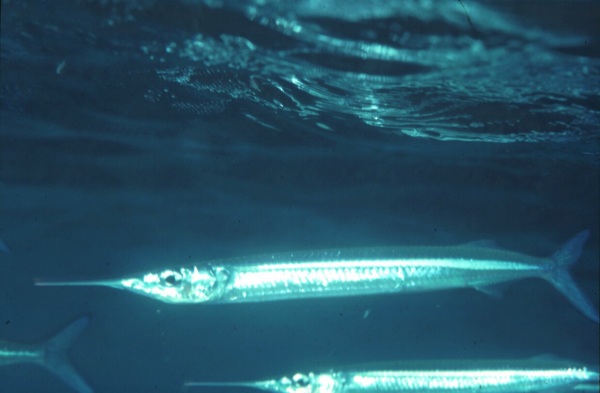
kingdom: Animalia
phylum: Chordata
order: Beloniformes
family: Hemiramphidae
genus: Hyporhamphus
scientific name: Hyporhamphus dussumieri
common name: Dussumier's halfbeak
